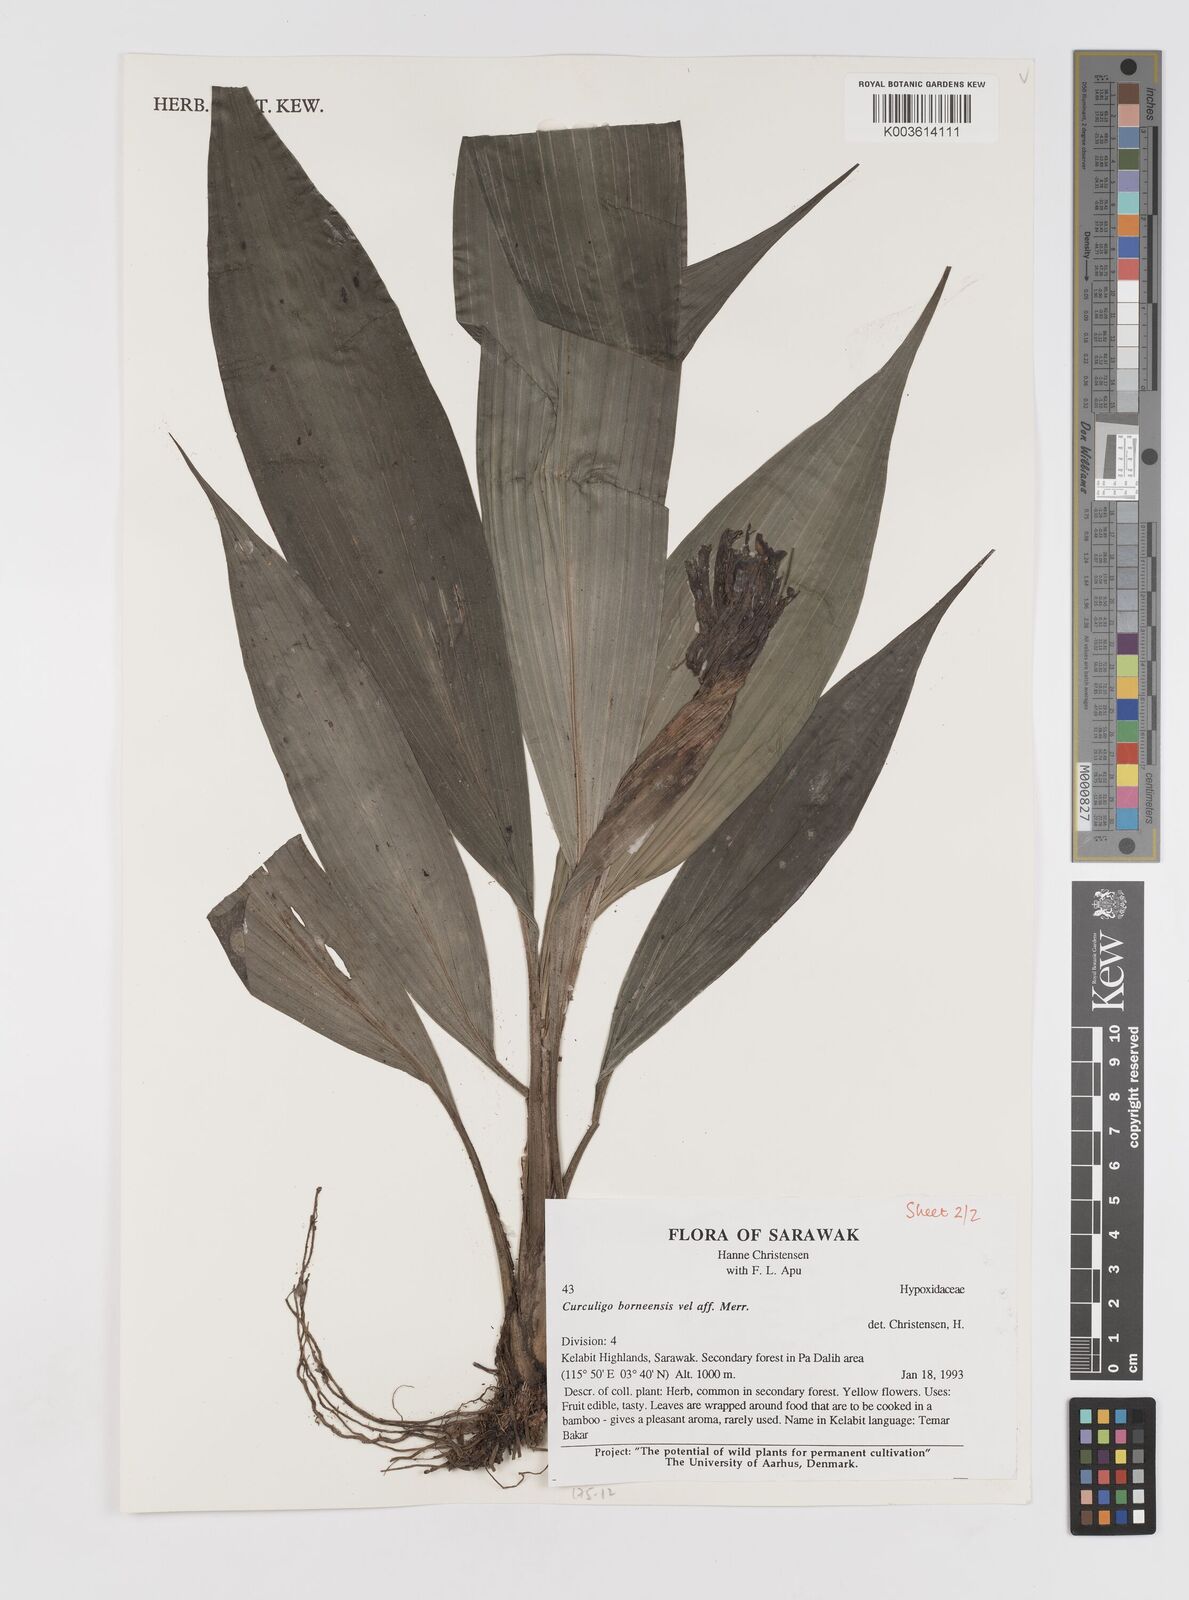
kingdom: Plantae
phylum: Tracheophyta
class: Liliopsida
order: Asparagales
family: Hypoxidaceae
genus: Curculigo
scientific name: Curculigo latifolia
